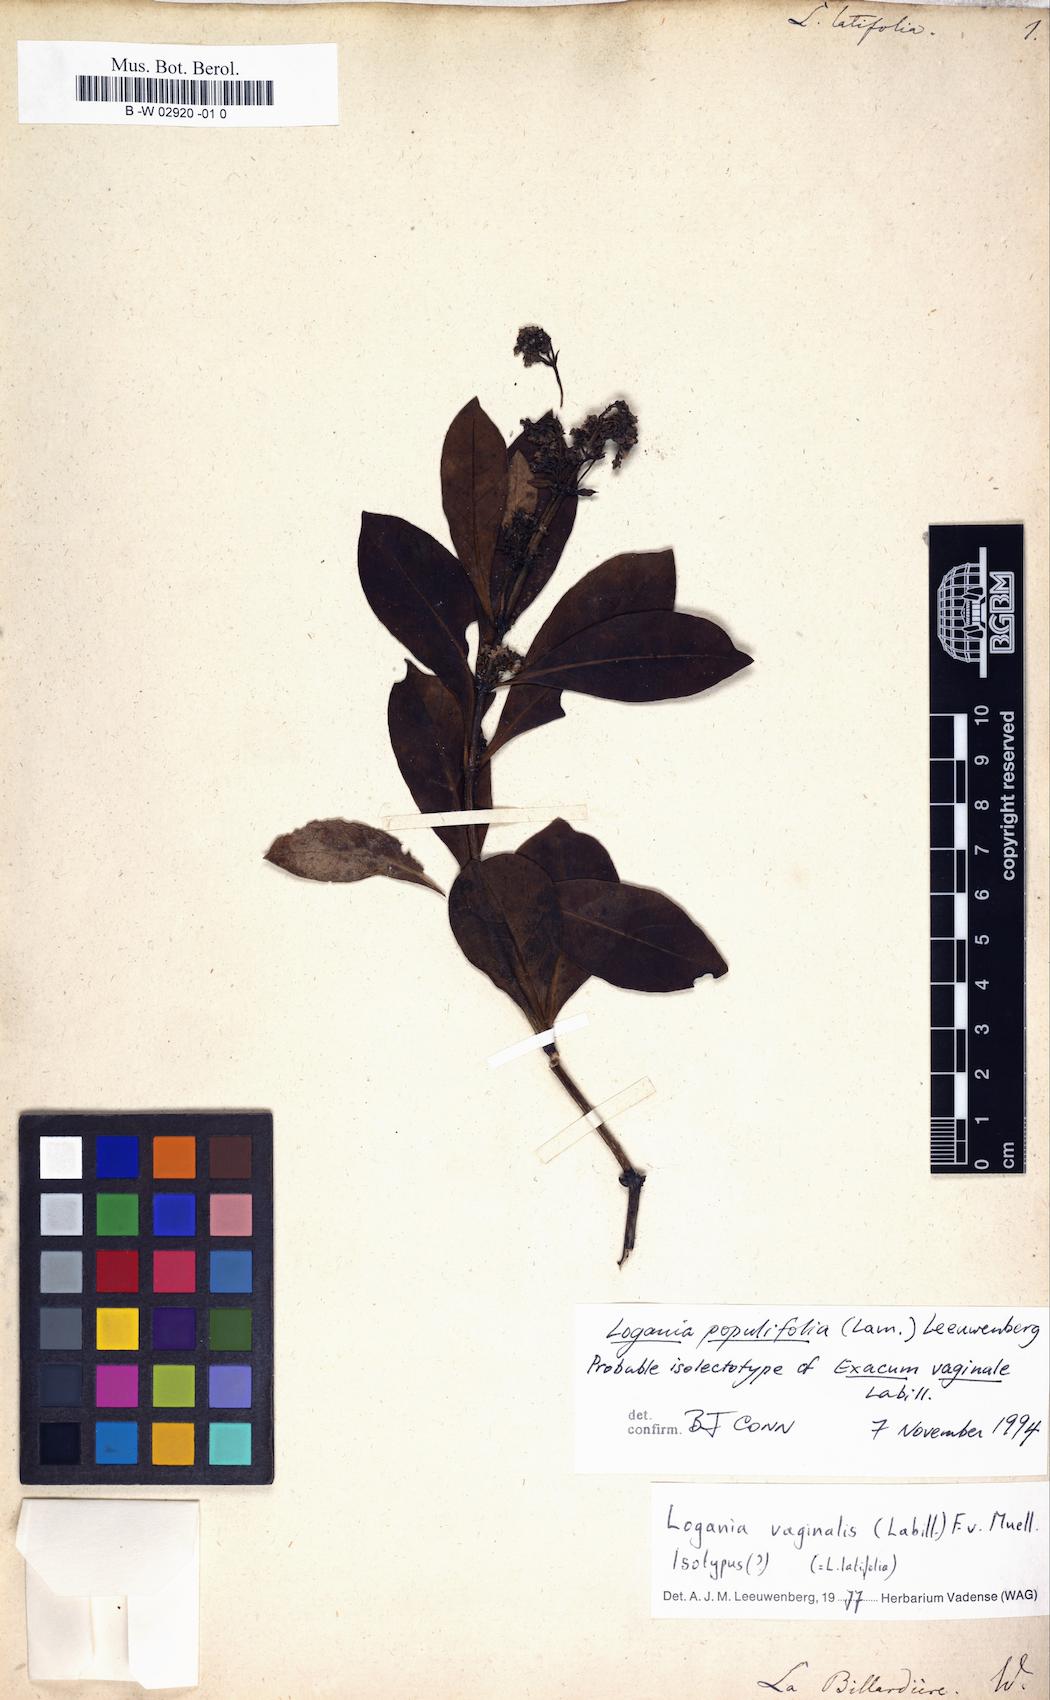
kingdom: Plantae
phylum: Tracheophyta
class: Magnoliopsida
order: Gentianales
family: Loganiaceae
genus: Logania
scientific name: Logania vaginalis
